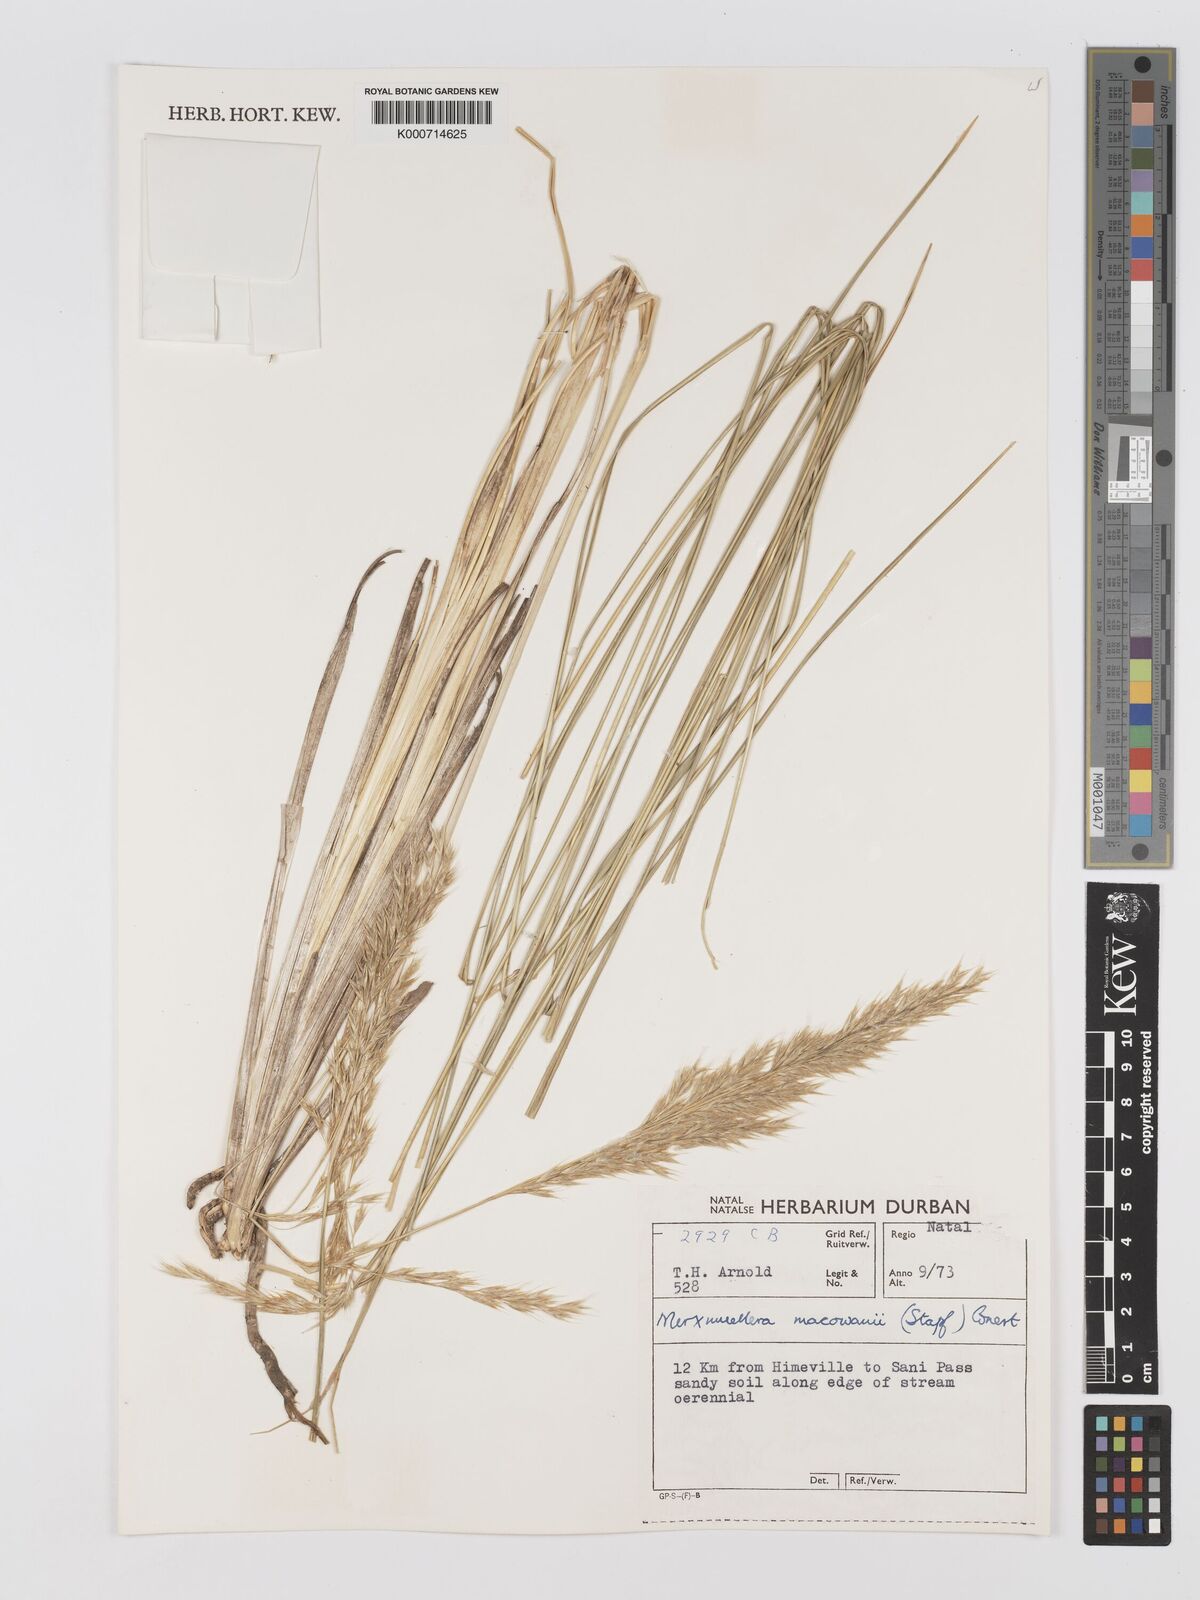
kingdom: Plantae
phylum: Tracheophyta
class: Liliopsida
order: Poales
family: Poaceae
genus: Rytidosperma
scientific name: Rytidosperma
